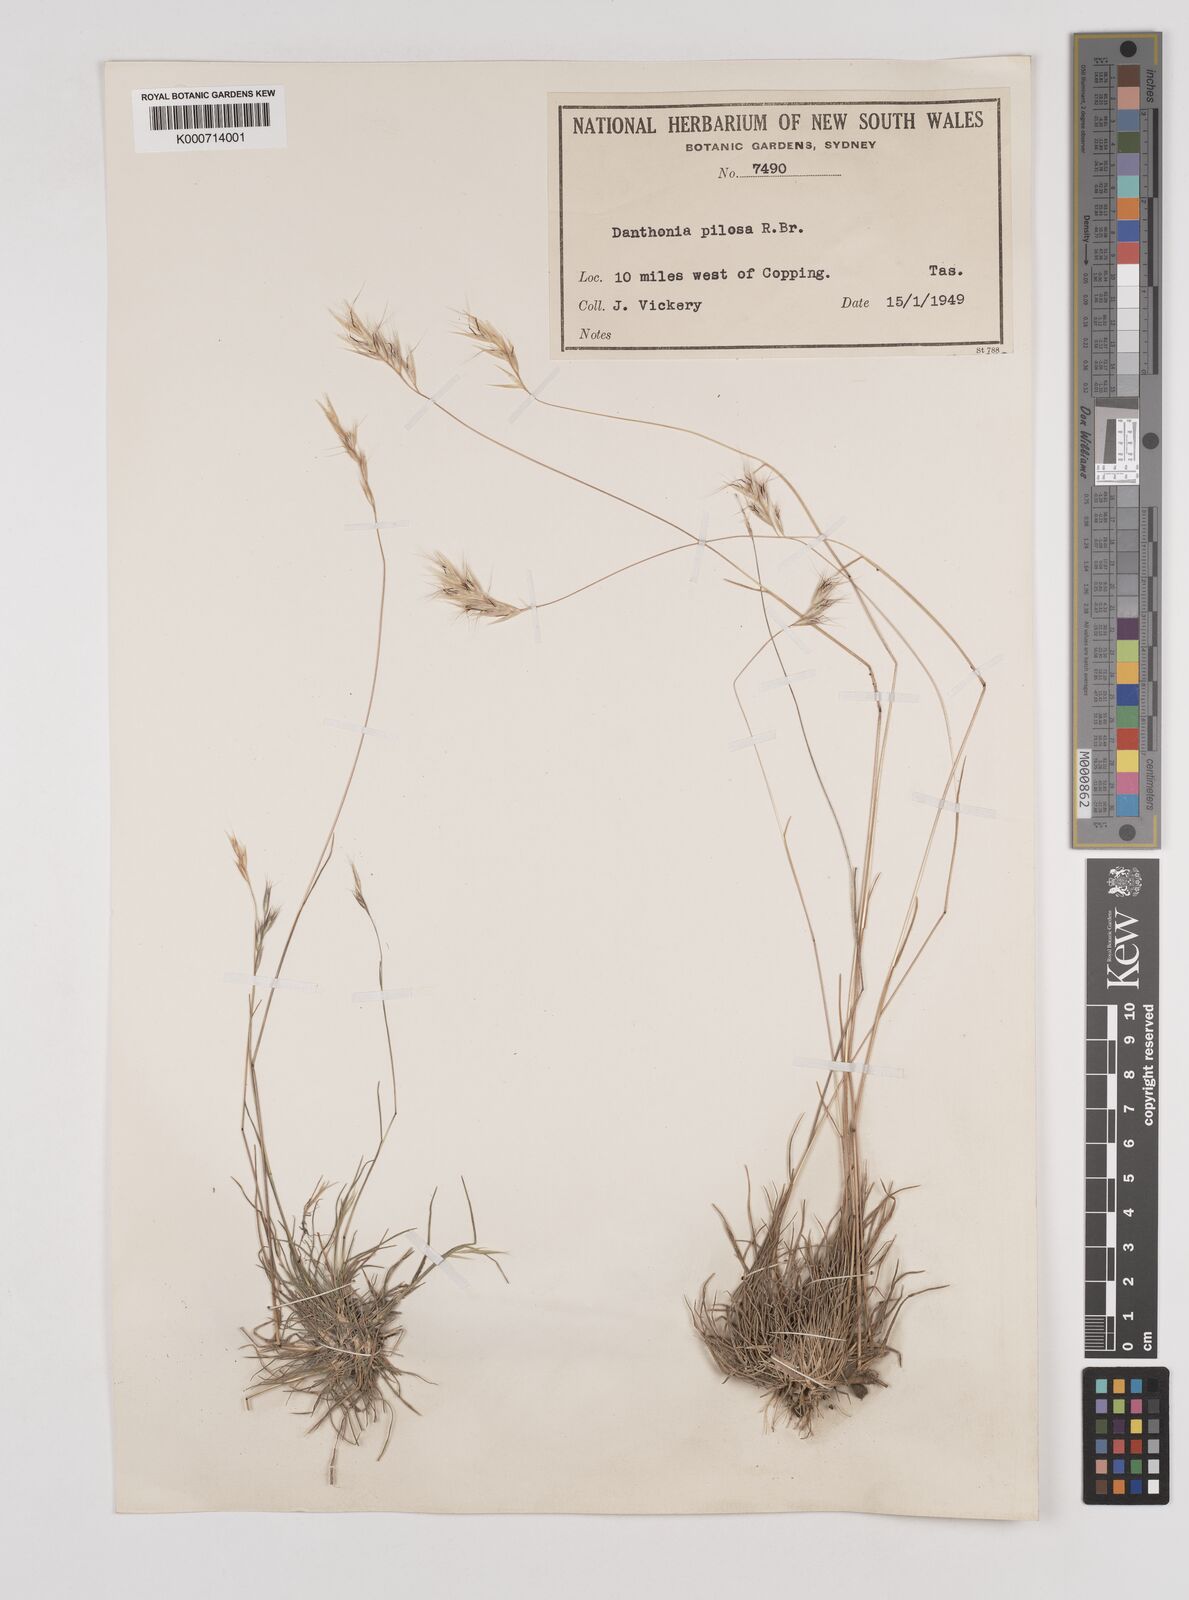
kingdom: Plantae
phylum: Tracheophyta
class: Liliopsida
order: Poales
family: Poaceae
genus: Rytidosperma
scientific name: Rytidosperma pilosum
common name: Hairy wallaby grass
